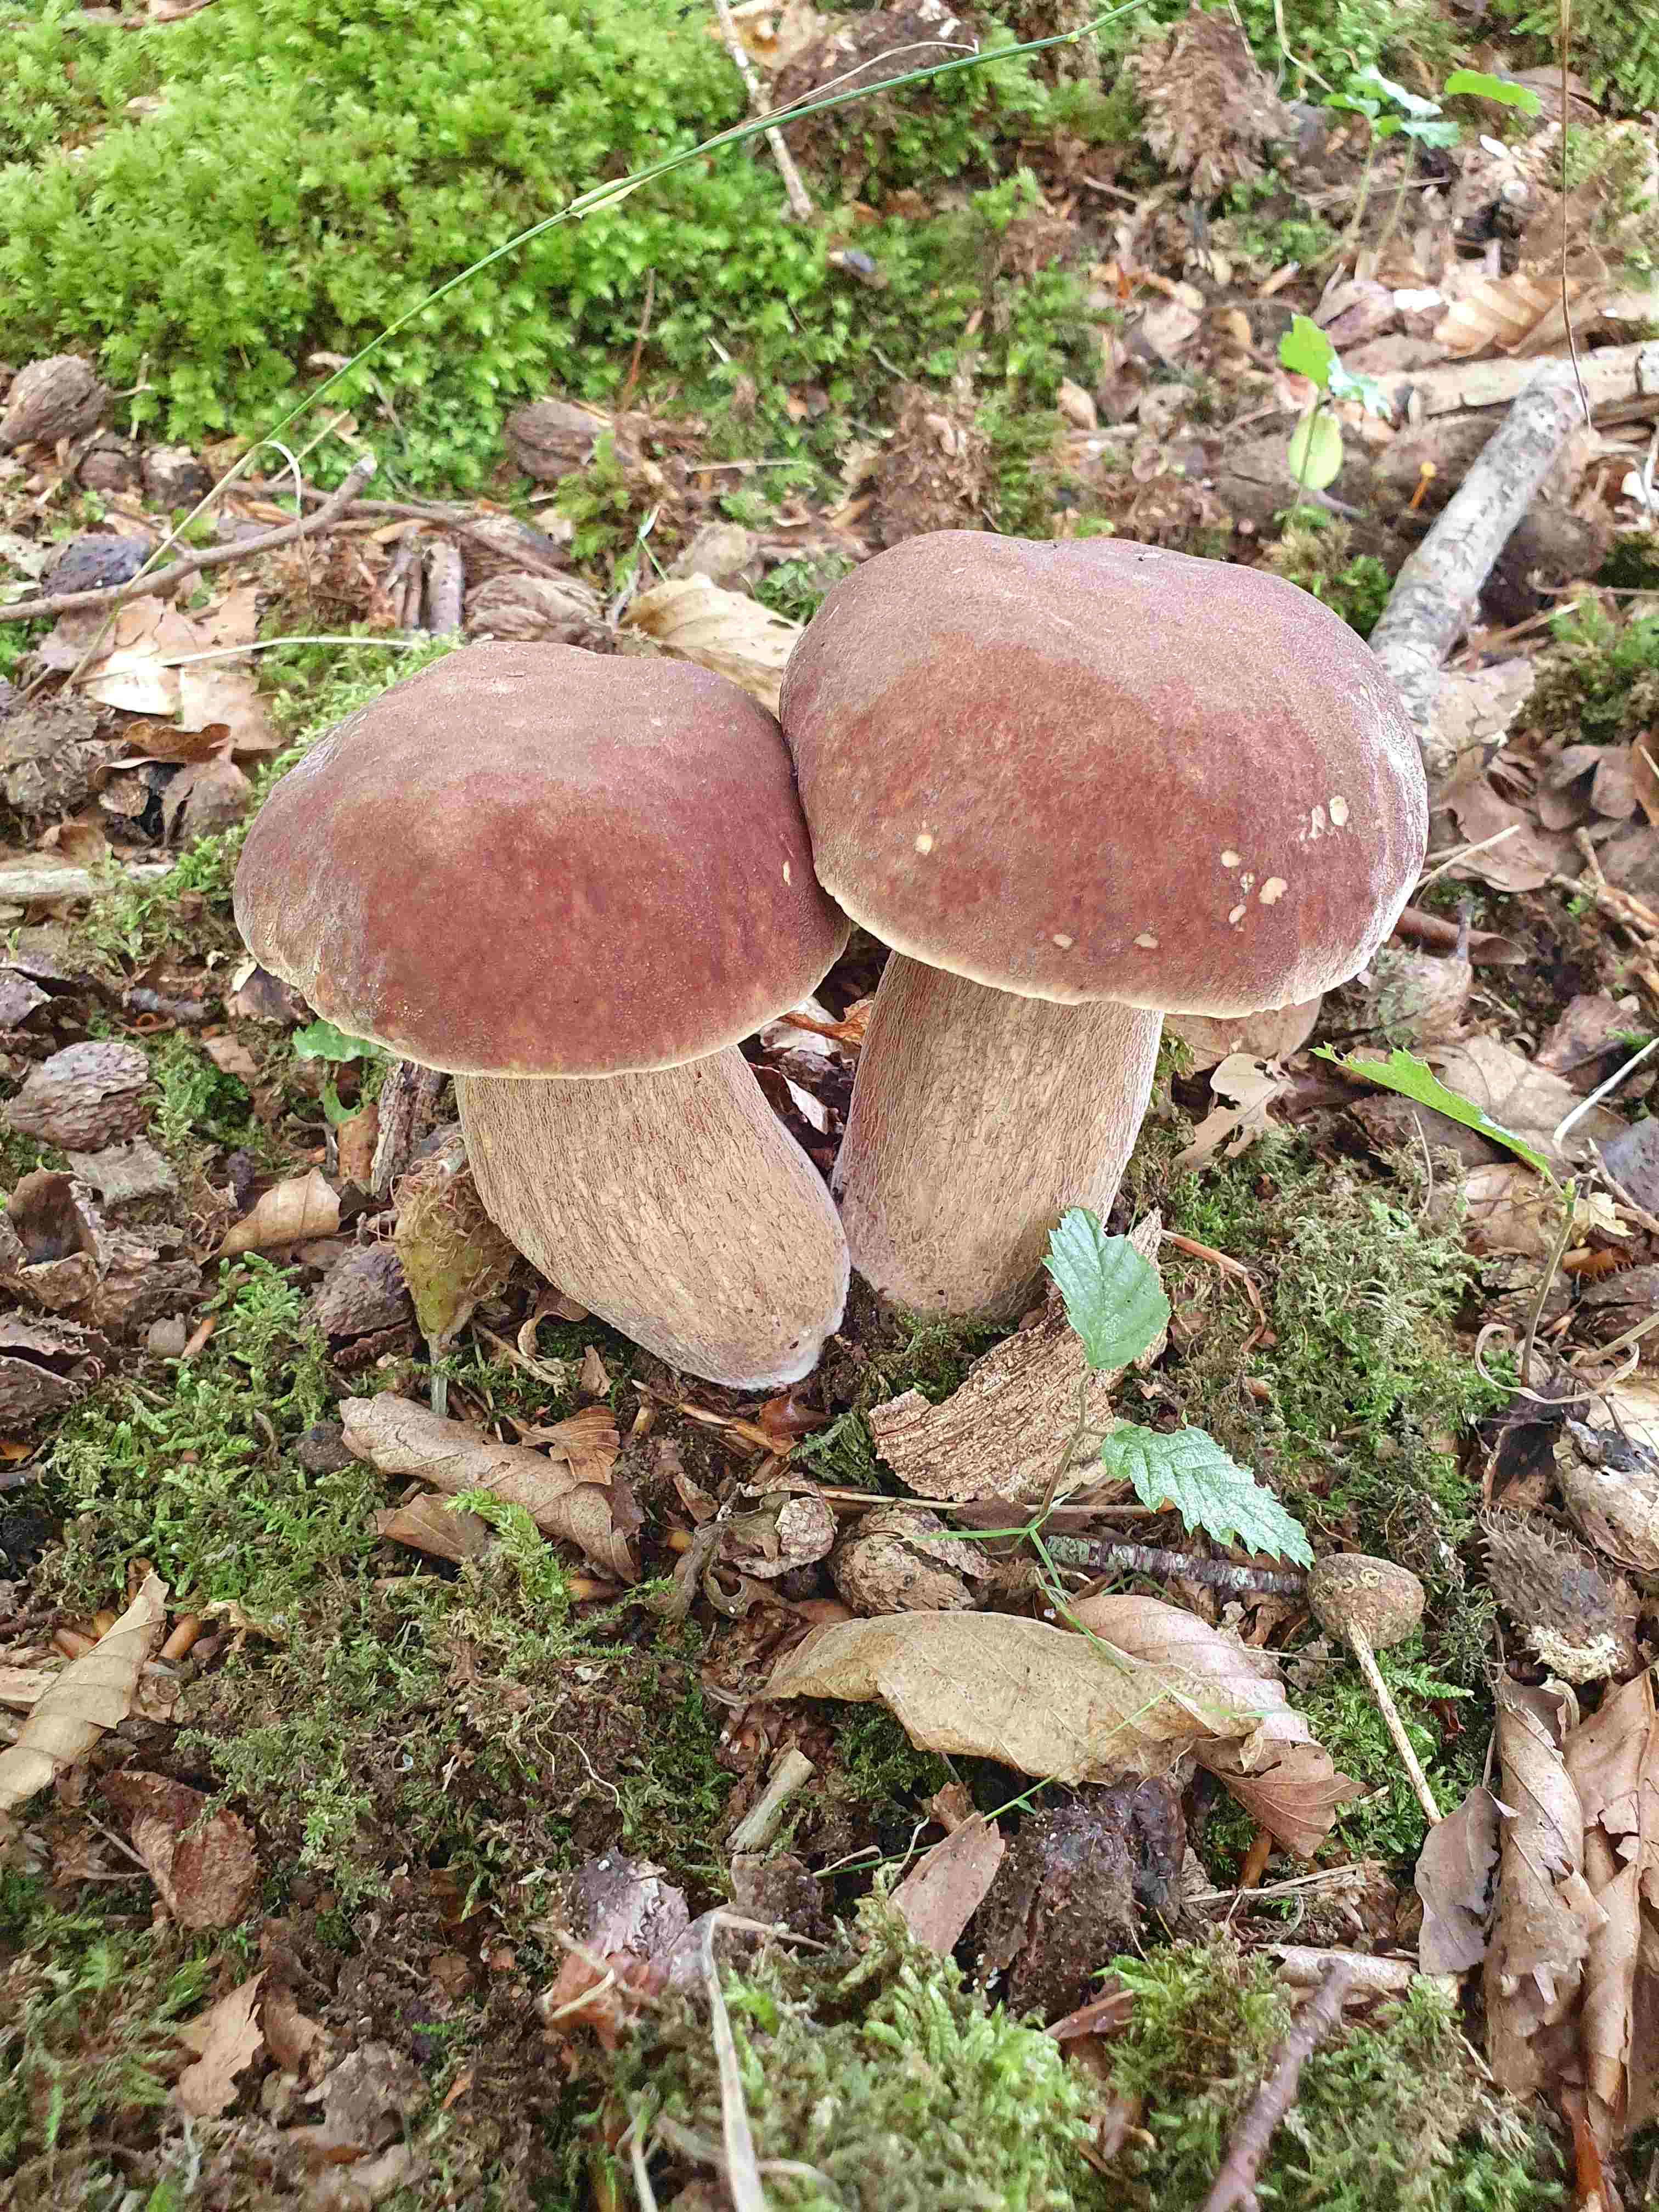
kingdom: Fungi
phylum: Basidiomycota
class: Agaricomycetes
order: Boletales
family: Boletaceae
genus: Boletus
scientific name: Boletus reticulatus
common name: sommer-rørhat
